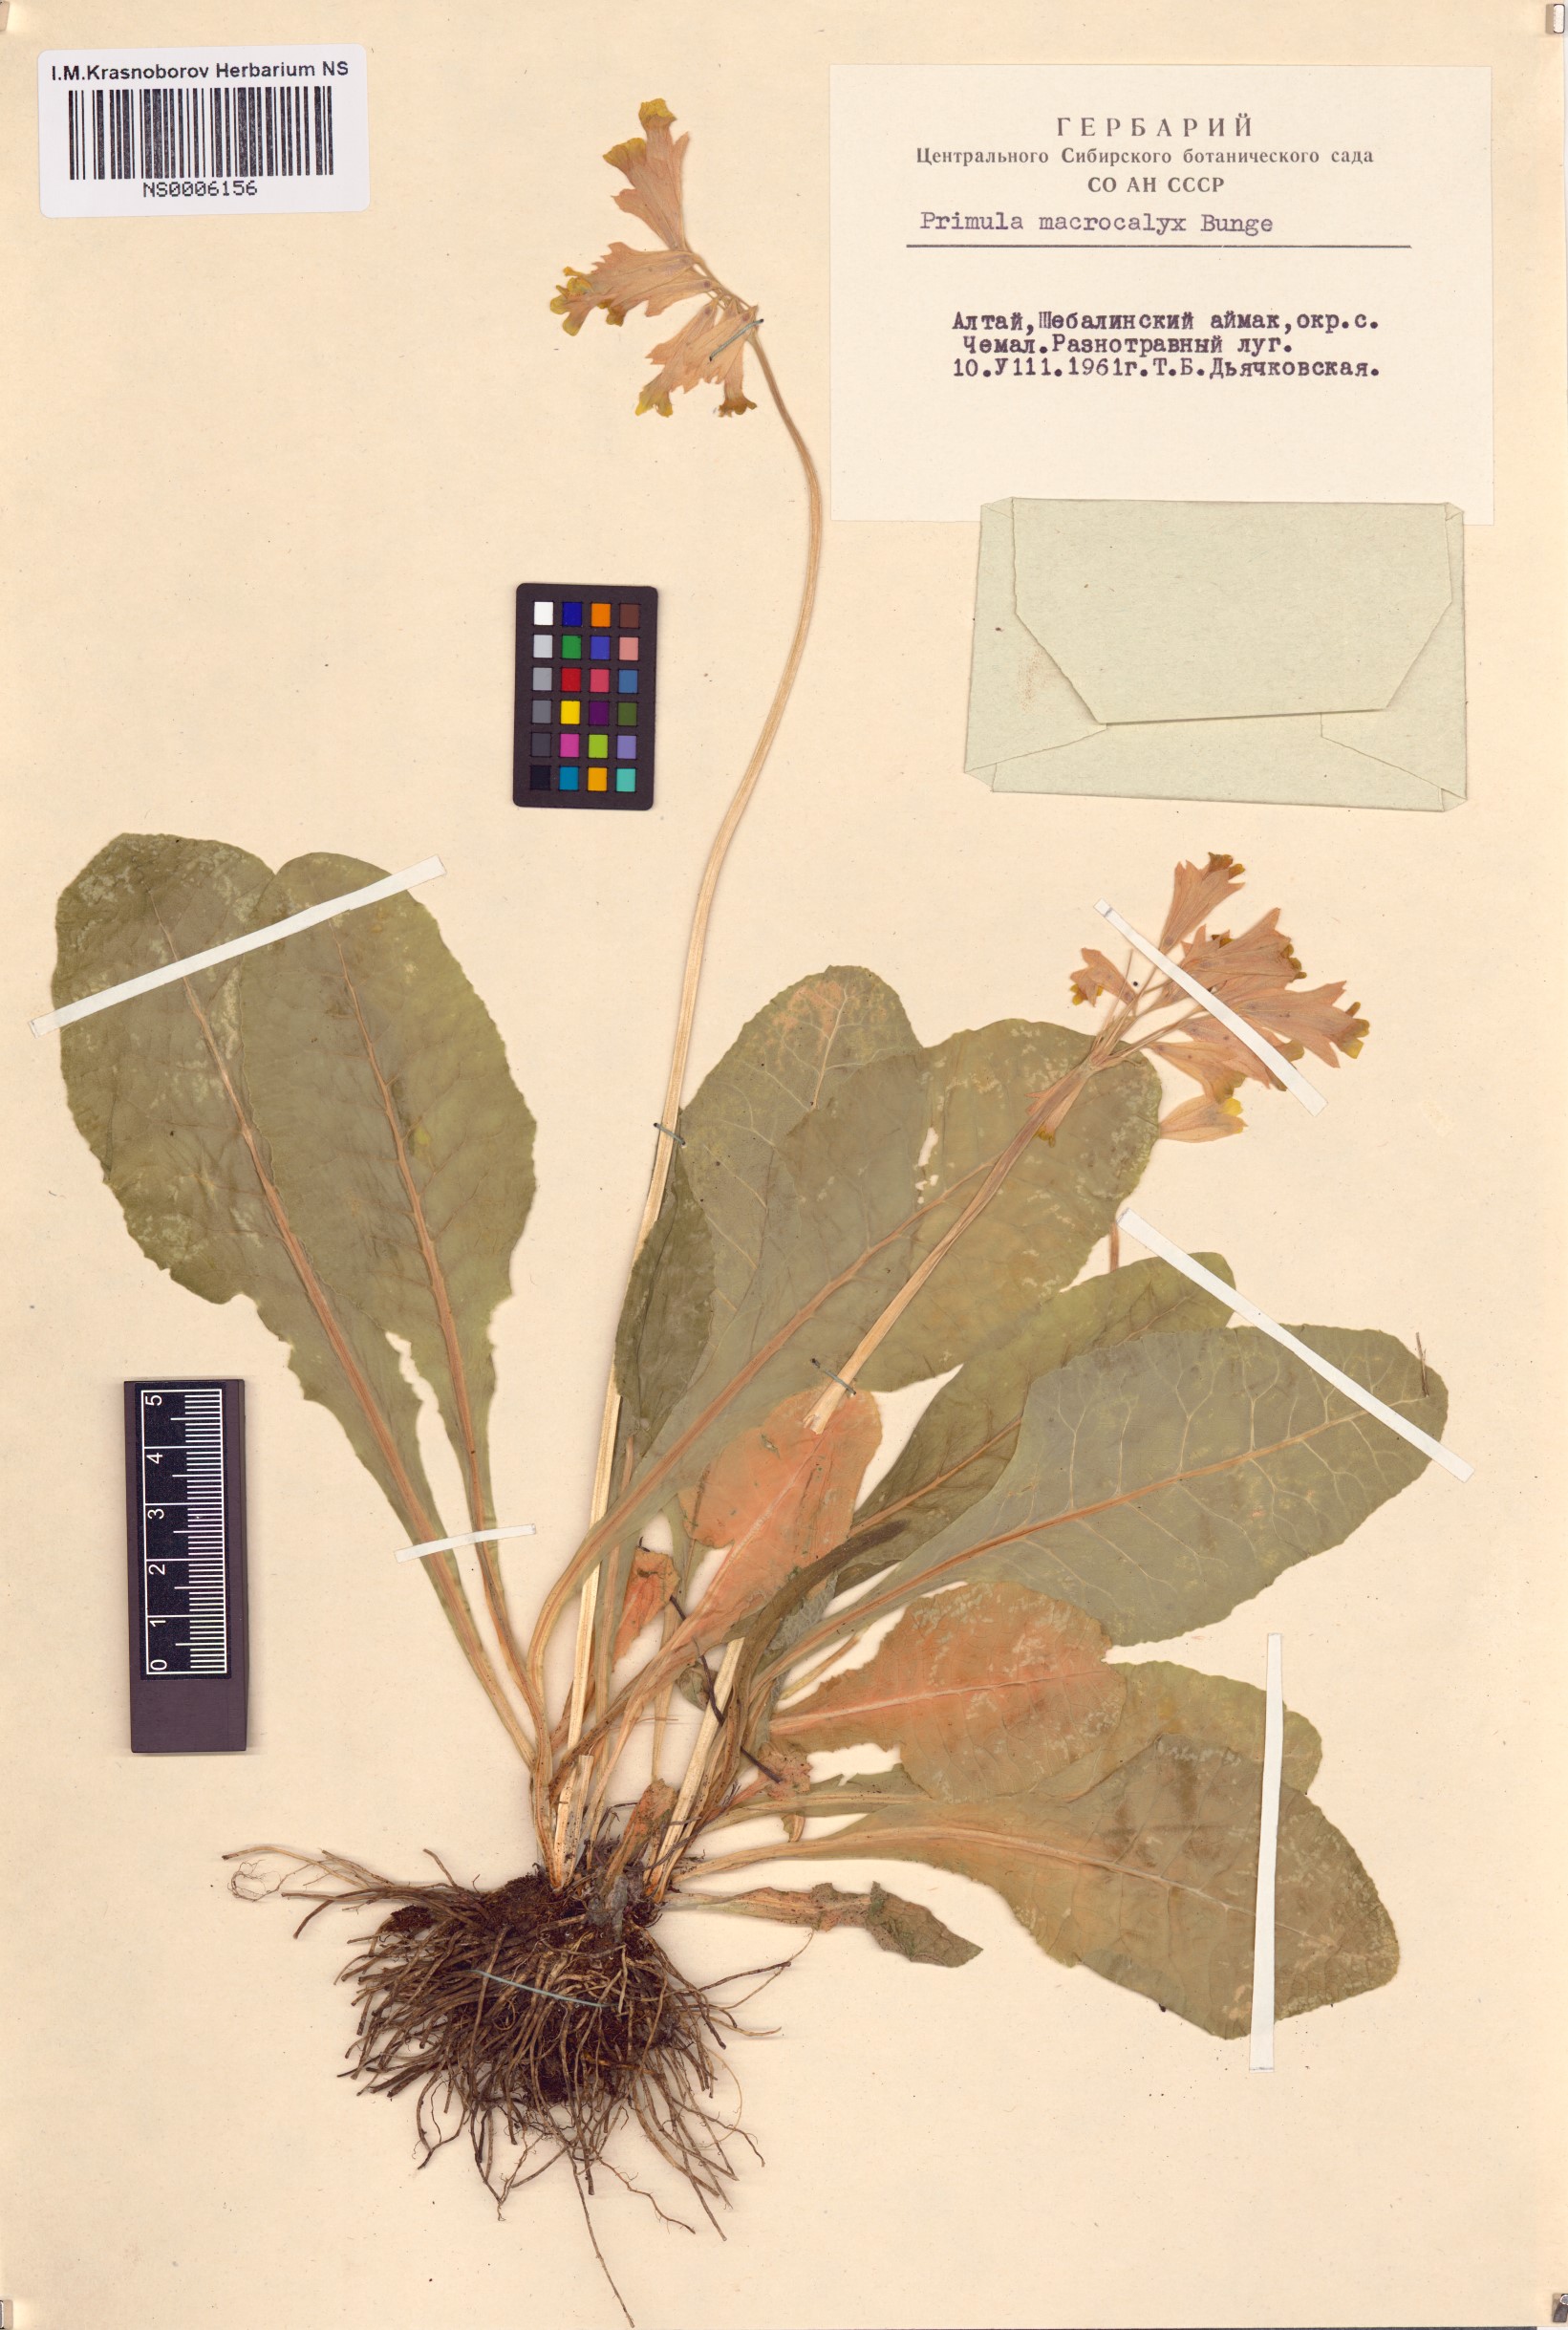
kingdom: Plantae
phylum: Tracheophyta
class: Magnoliopsida
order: Ericales
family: Primulaceae
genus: Primula
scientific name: Primula veris
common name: Cowslip
